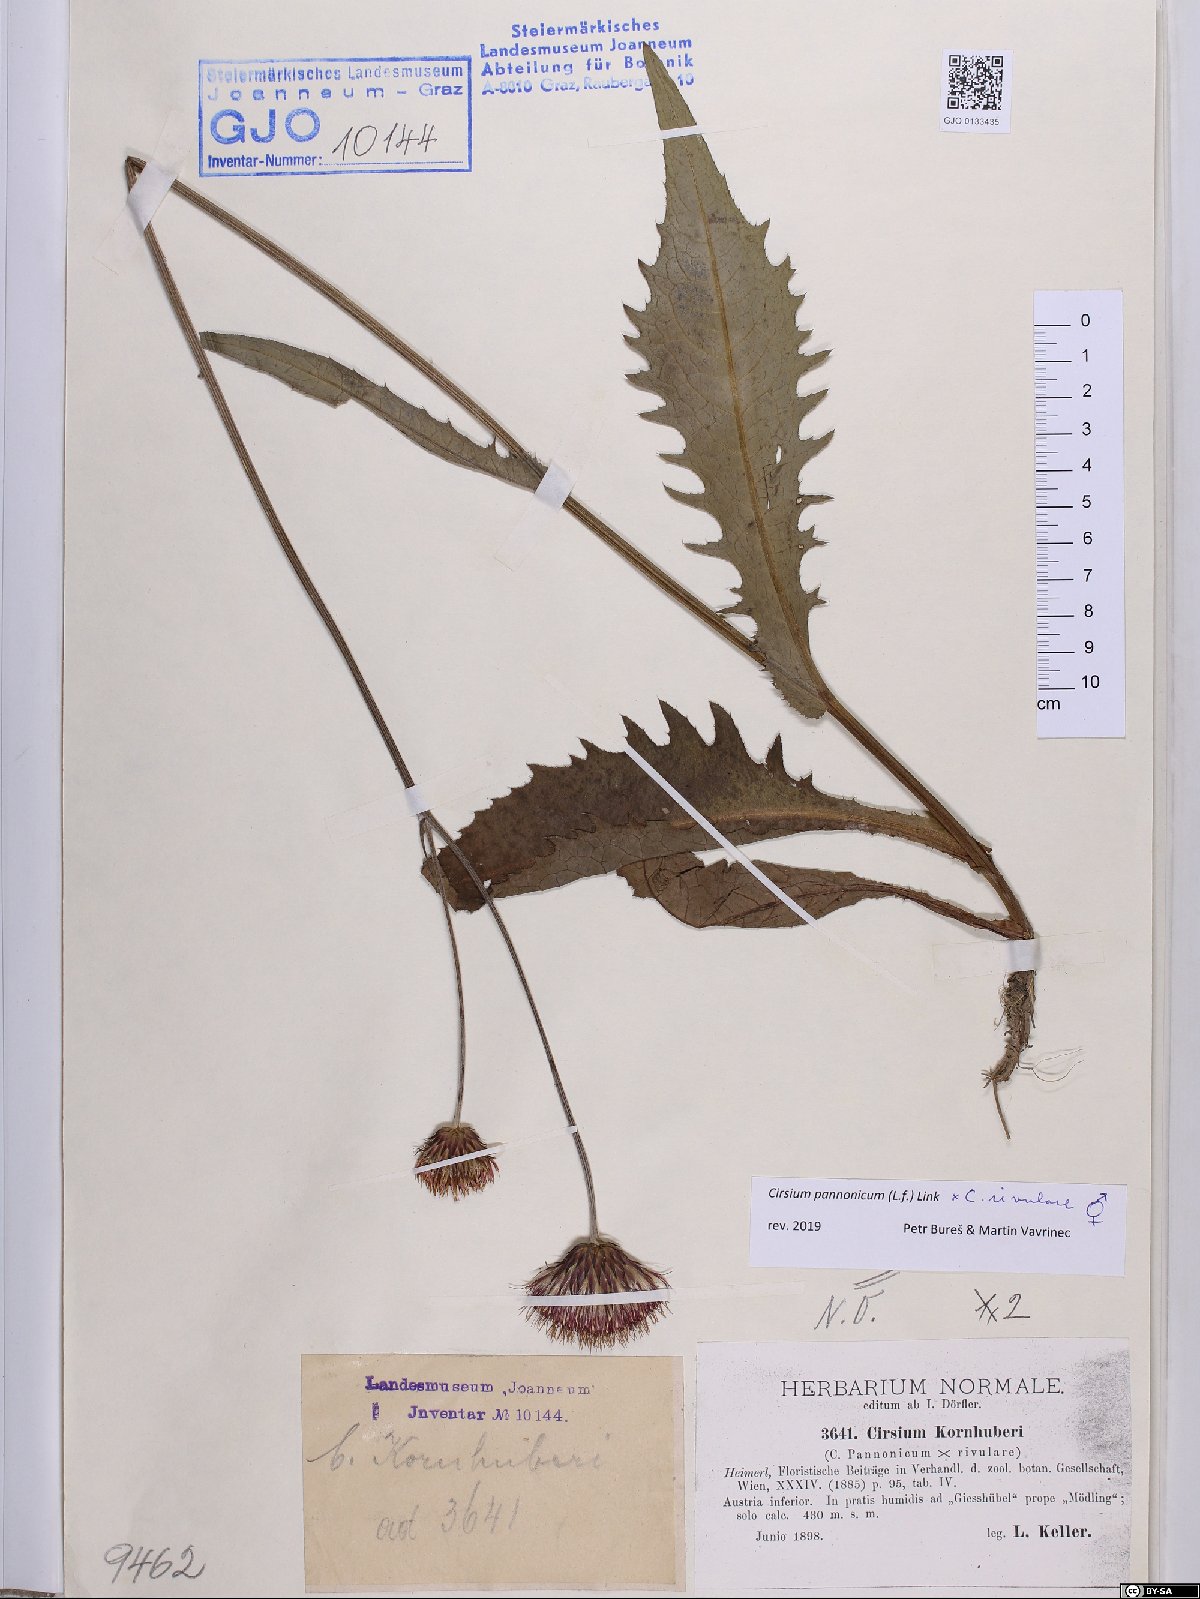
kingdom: Plantae
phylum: Tracheophyta
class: Magnoliopsida
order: Asterales
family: Asteraceae
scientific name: Asteraceae
